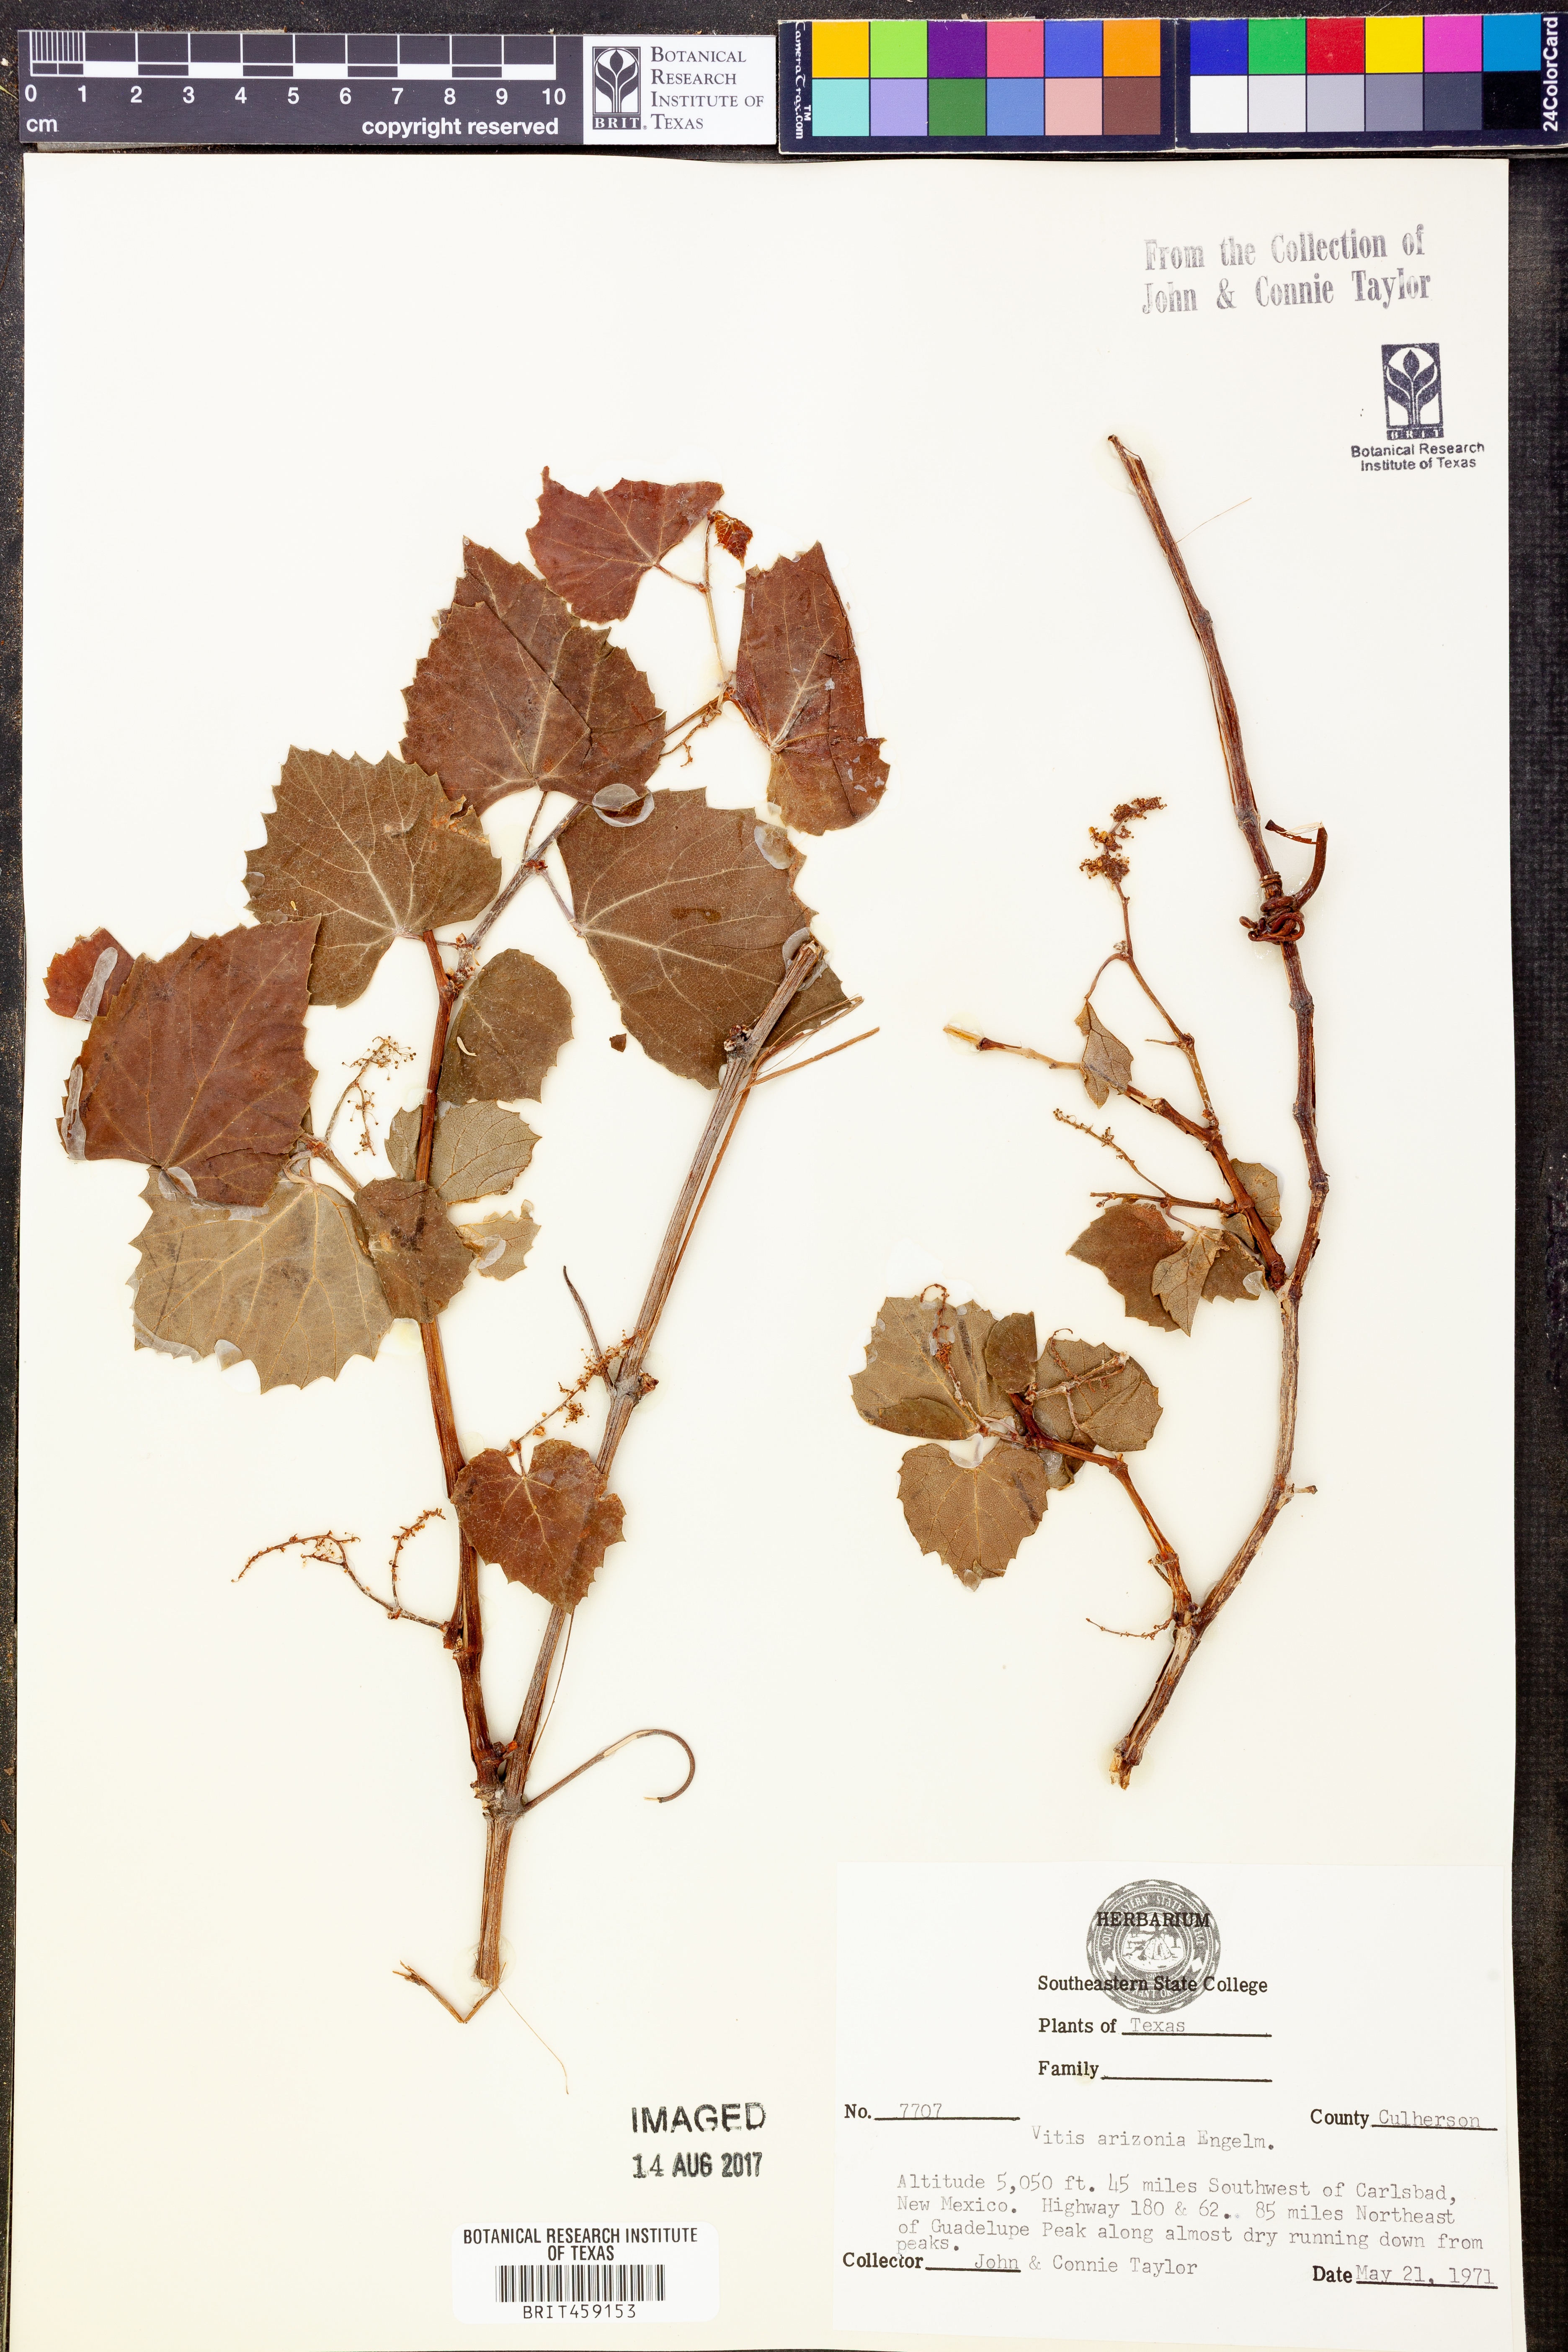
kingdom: Plantae
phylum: Tracheophyta
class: Magnoliopsida
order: Vitales
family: Vitaceae
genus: Vitis
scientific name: Vitis arizonica
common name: Canyon grape
